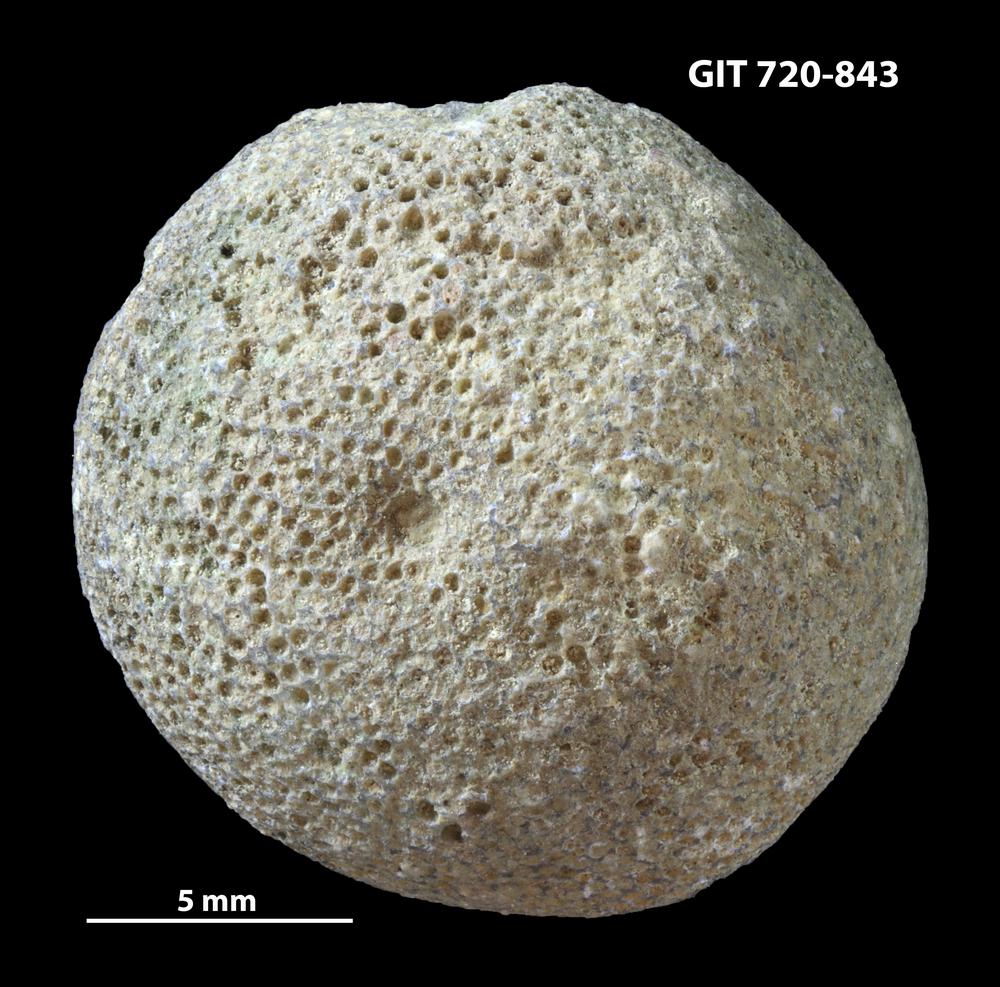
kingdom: Animalia
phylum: Bryozoa
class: Stenolaemata
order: Trepostomatida
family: Diplotrypidae
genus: Diplotrypa
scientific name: Diplotrypa
